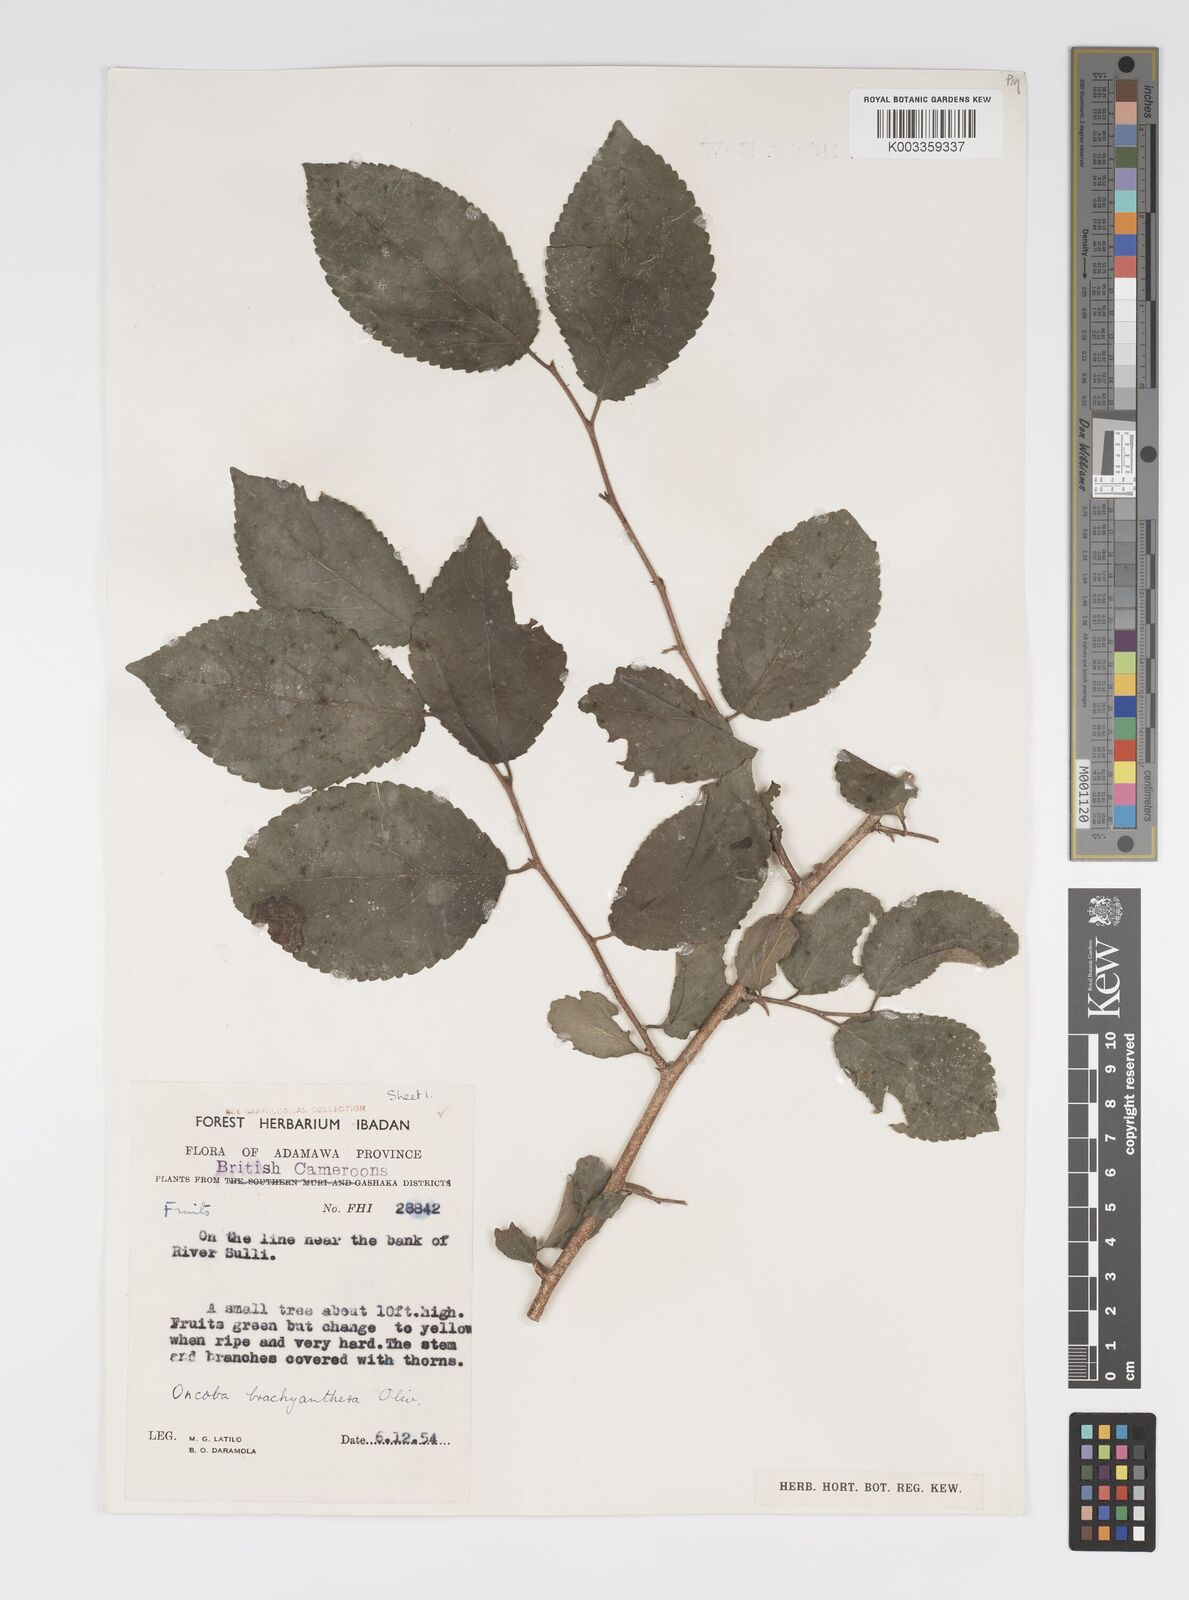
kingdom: Plantae
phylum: Tracheophyta
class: Magnoliopsida
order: Malpighiales
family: Salicaceae
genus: Oncoba
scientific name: Oncoba brachyanthera
